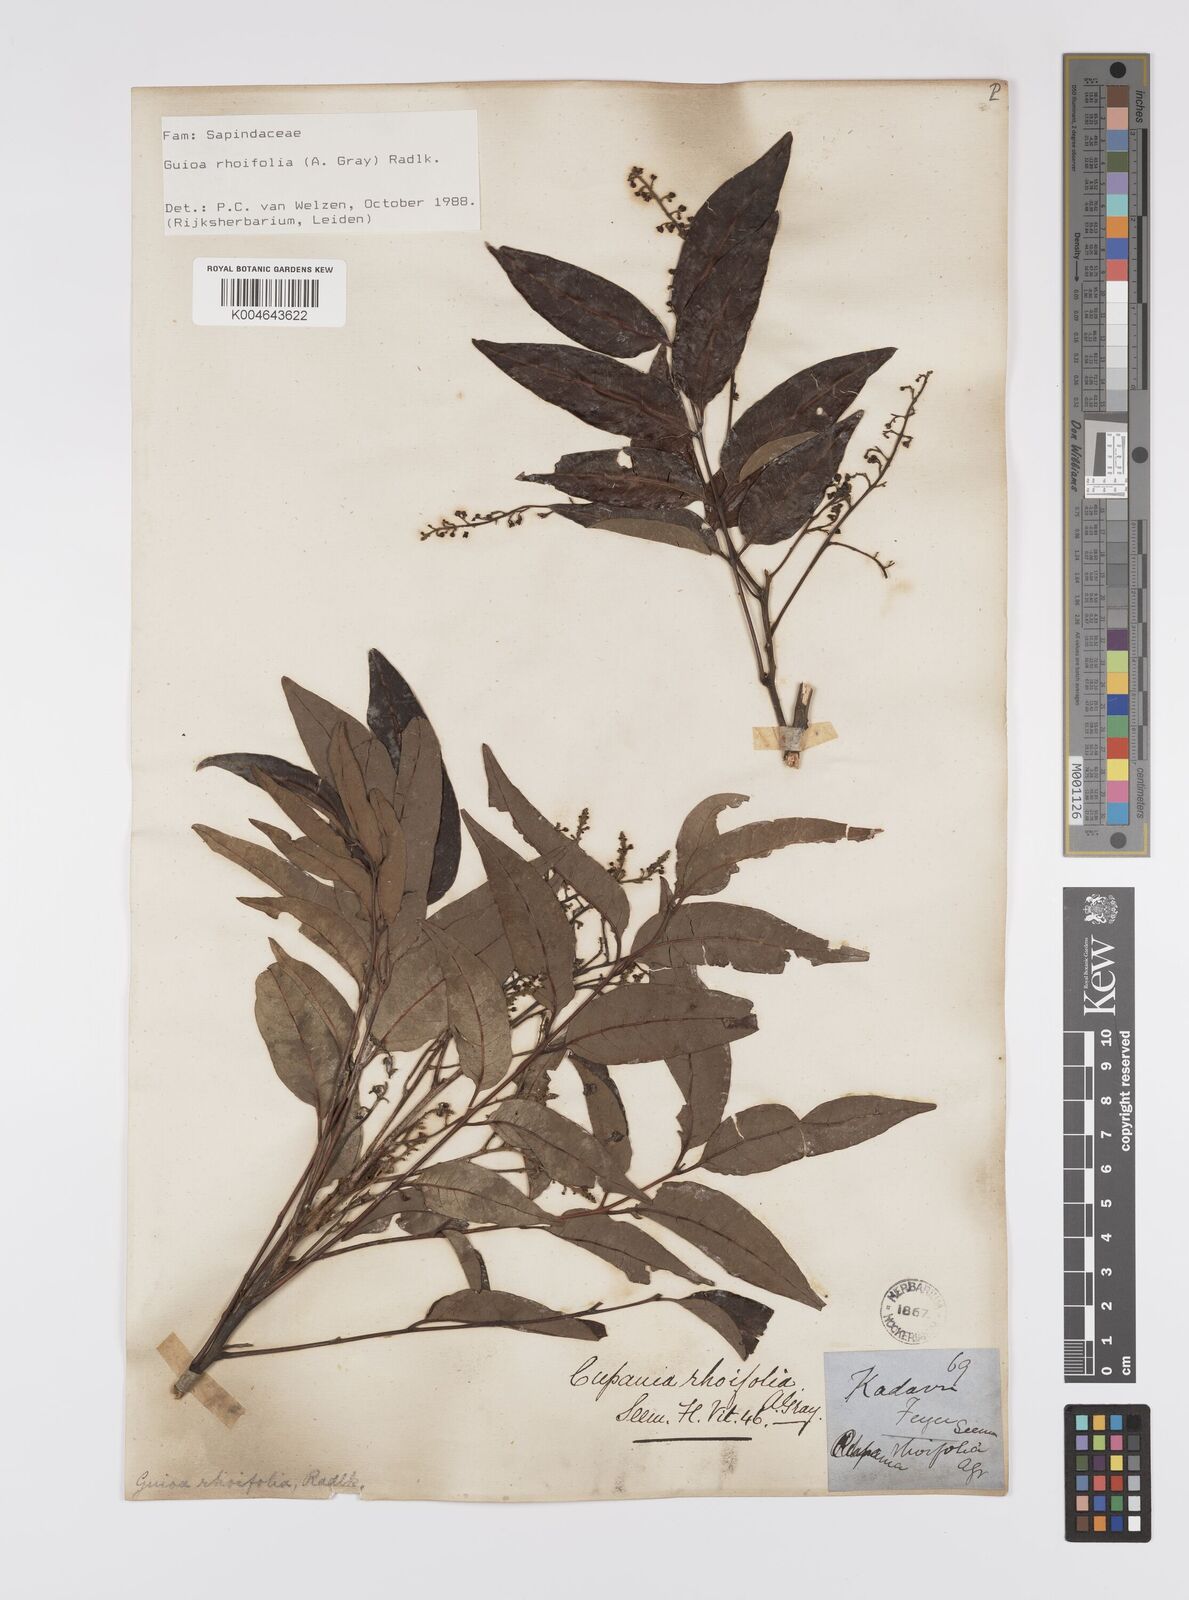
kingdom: Plantae
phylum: Tracheophyta
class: Magnoliopsida
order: Sapindales
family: Sapindaceae
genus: Guioa
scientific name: Guioa rhoifolia
